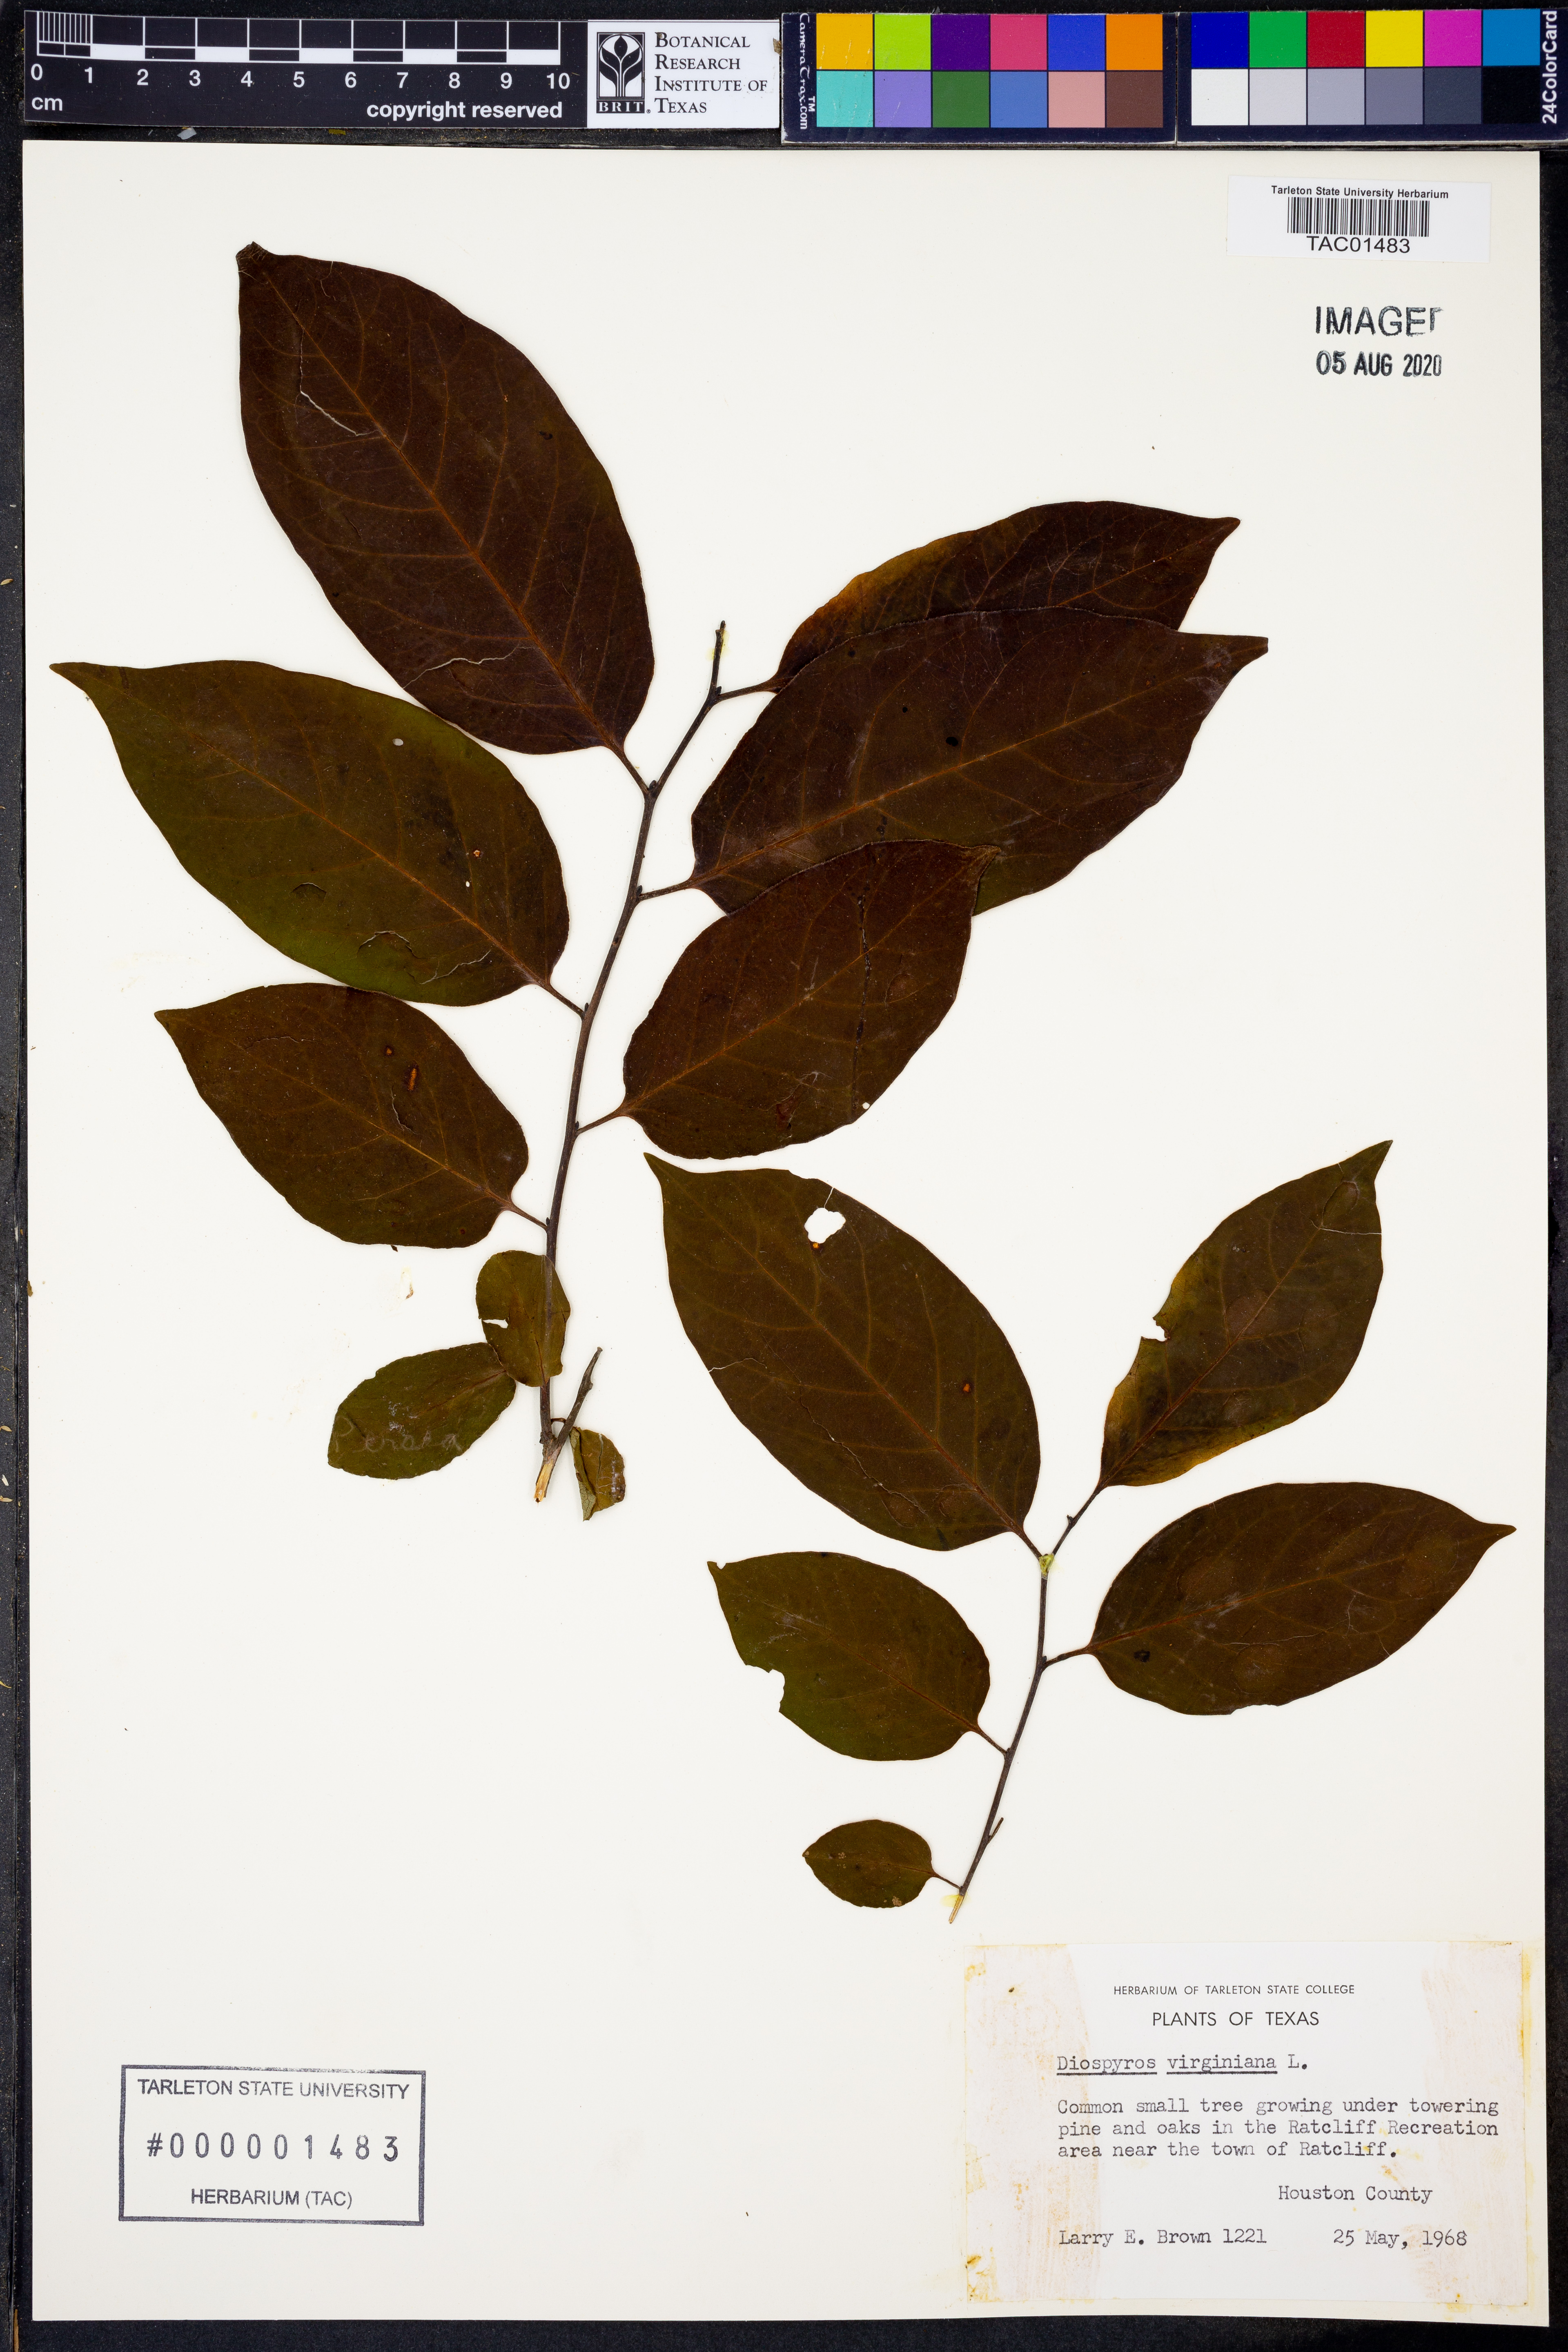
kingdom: Plantae
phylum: Tracheophyta
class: Magnoliopsida
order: Ericales
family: Ebenaceae
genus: Diospyros
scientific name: Diospyros virginiana
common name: Persimmon
